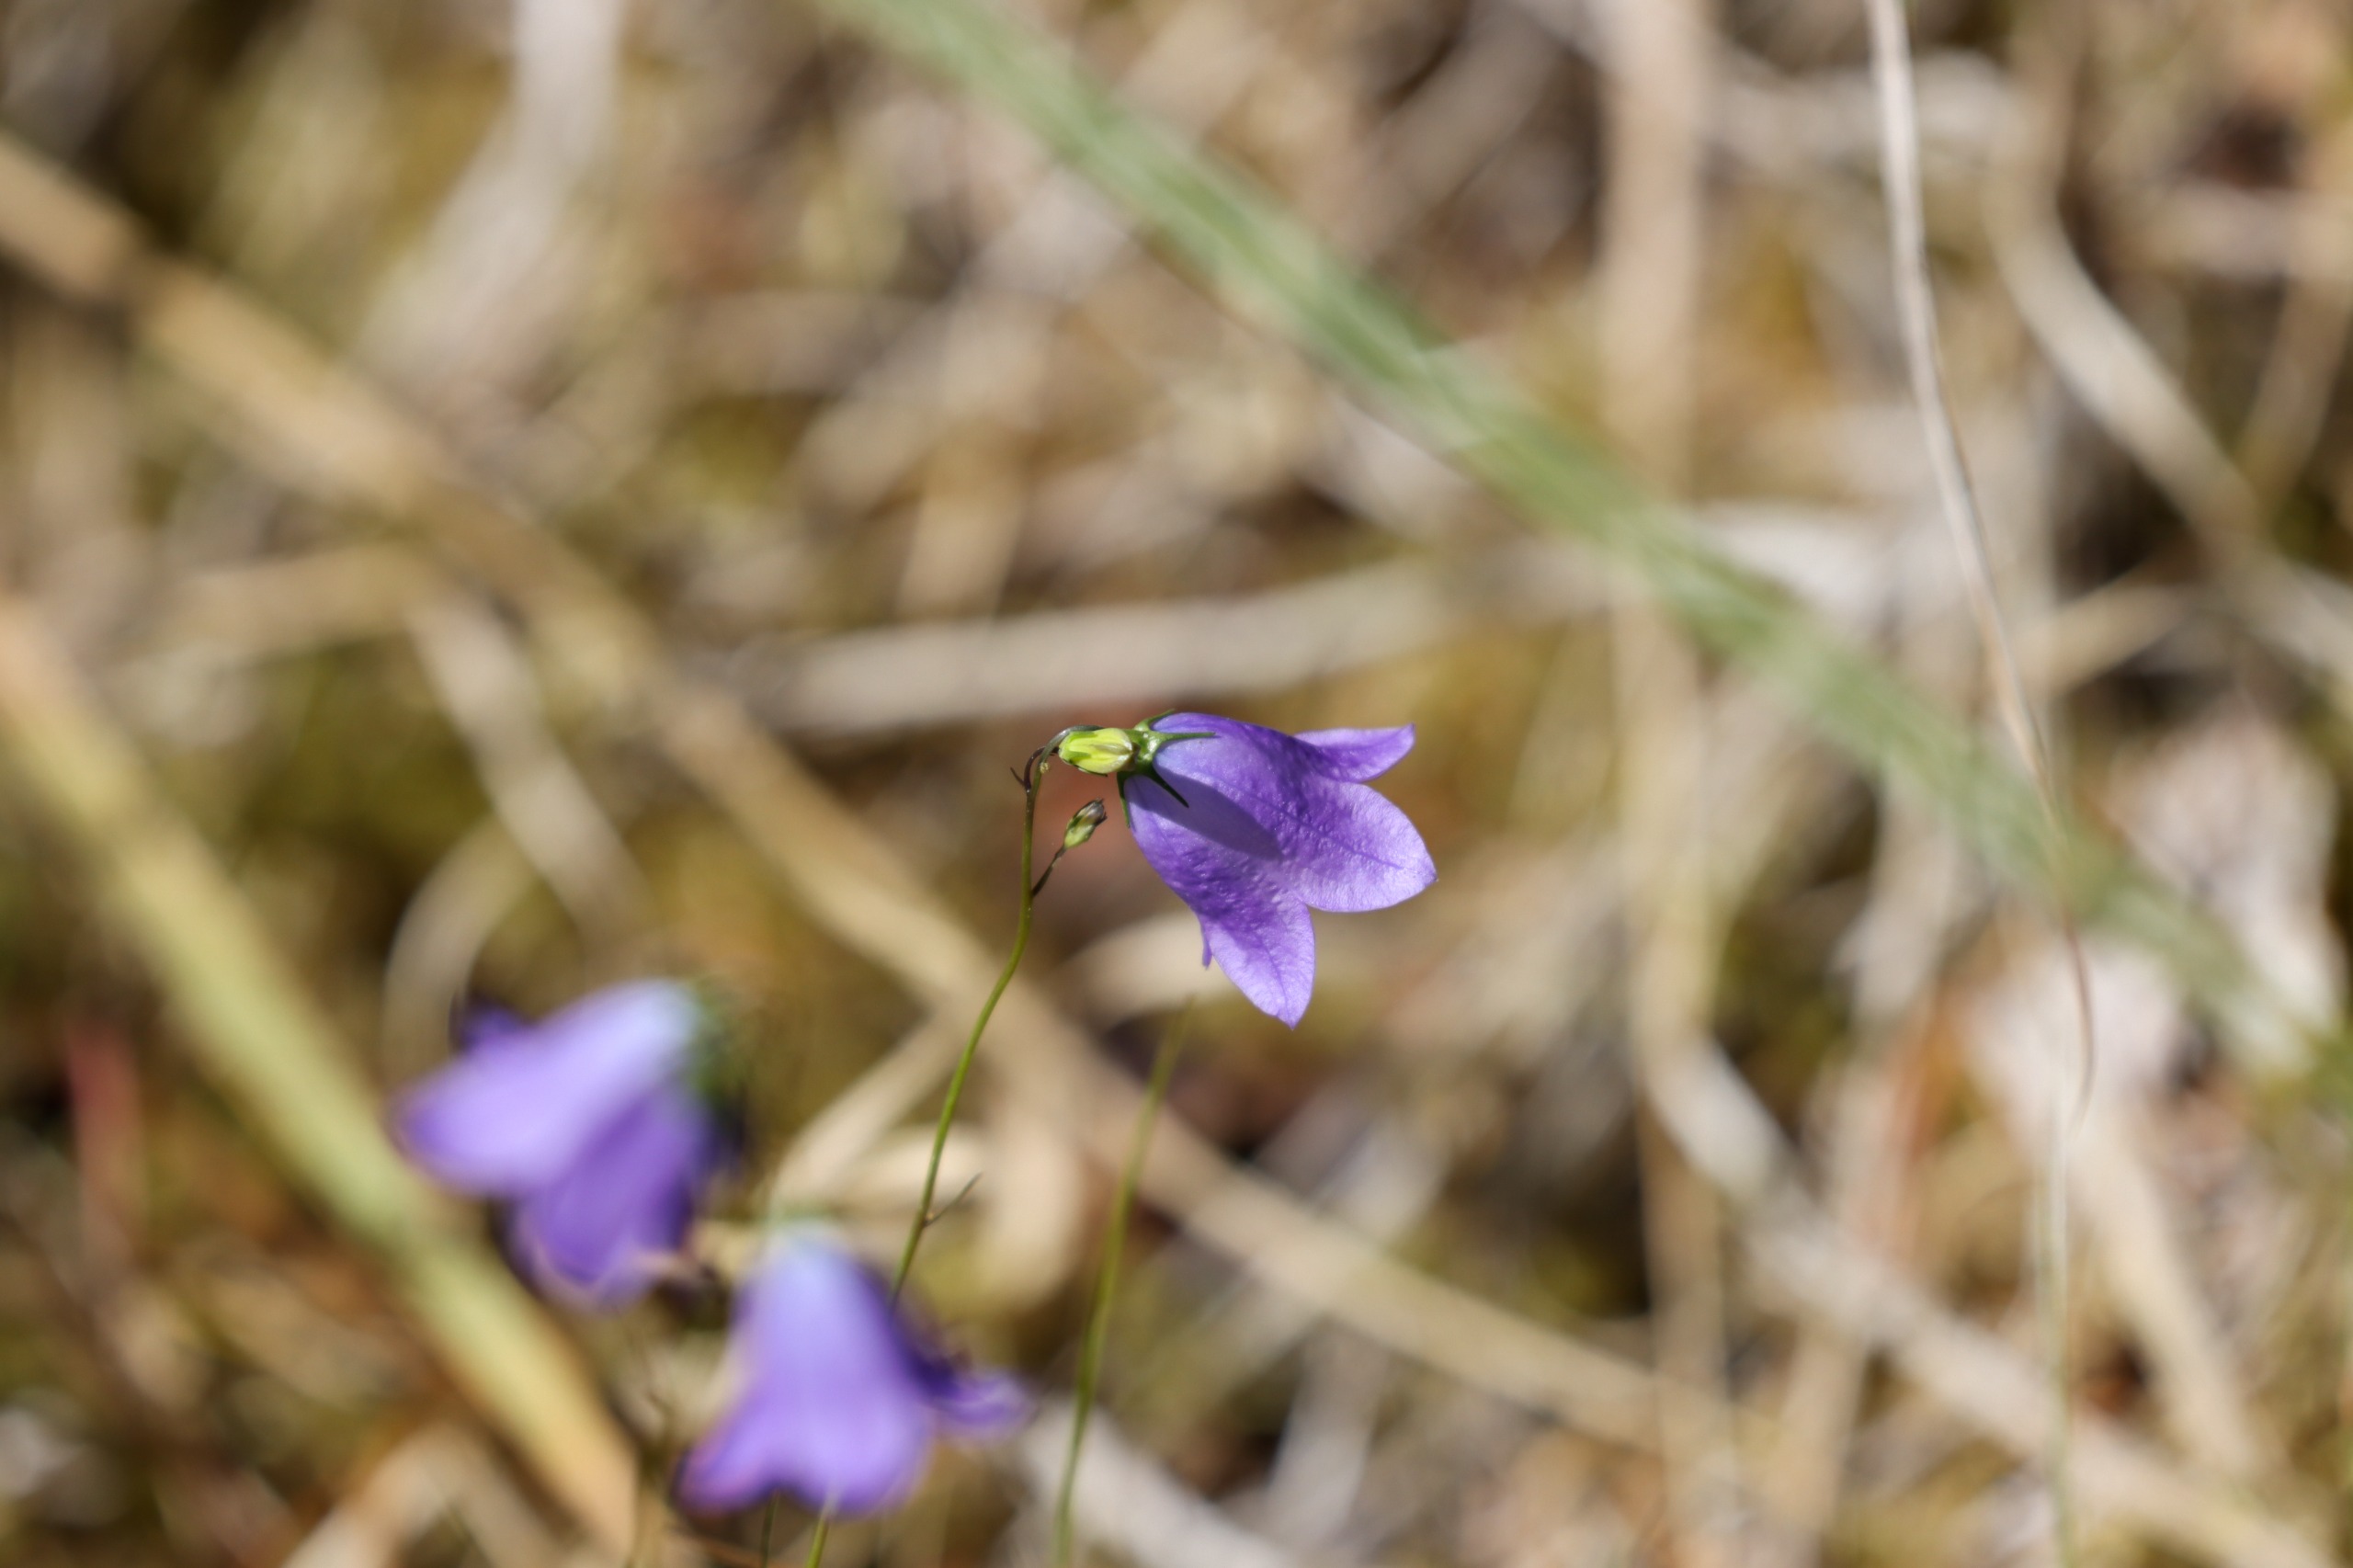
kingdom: Plantae
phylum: Tracheophyta
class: Magnoliopsida
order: Asterales
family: Campanulaceae
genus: Campanula
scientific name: Campanula rotundifolia
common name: Liden klokke
